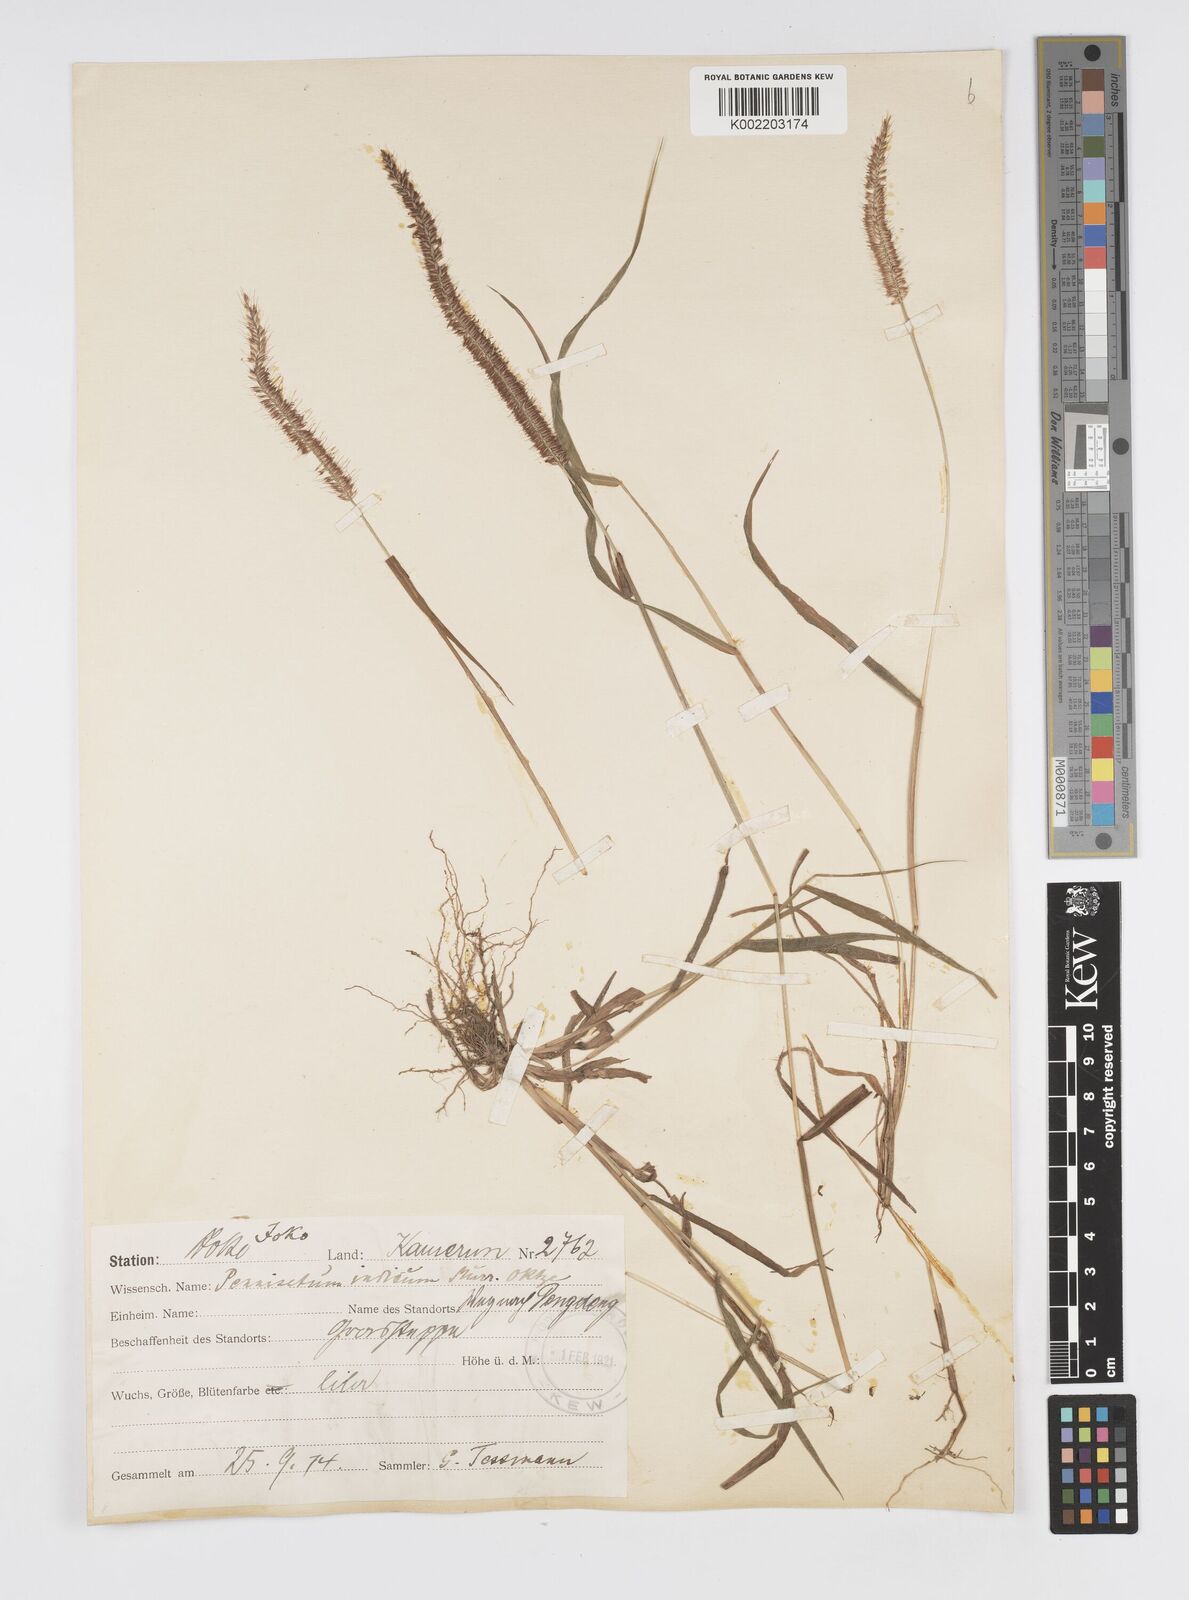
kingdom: Plantae
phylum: Tracheophyta
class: Liliopsida
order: Poales
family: Poaceae
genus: Cenchrus
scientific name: Cenchrus hordeoides
